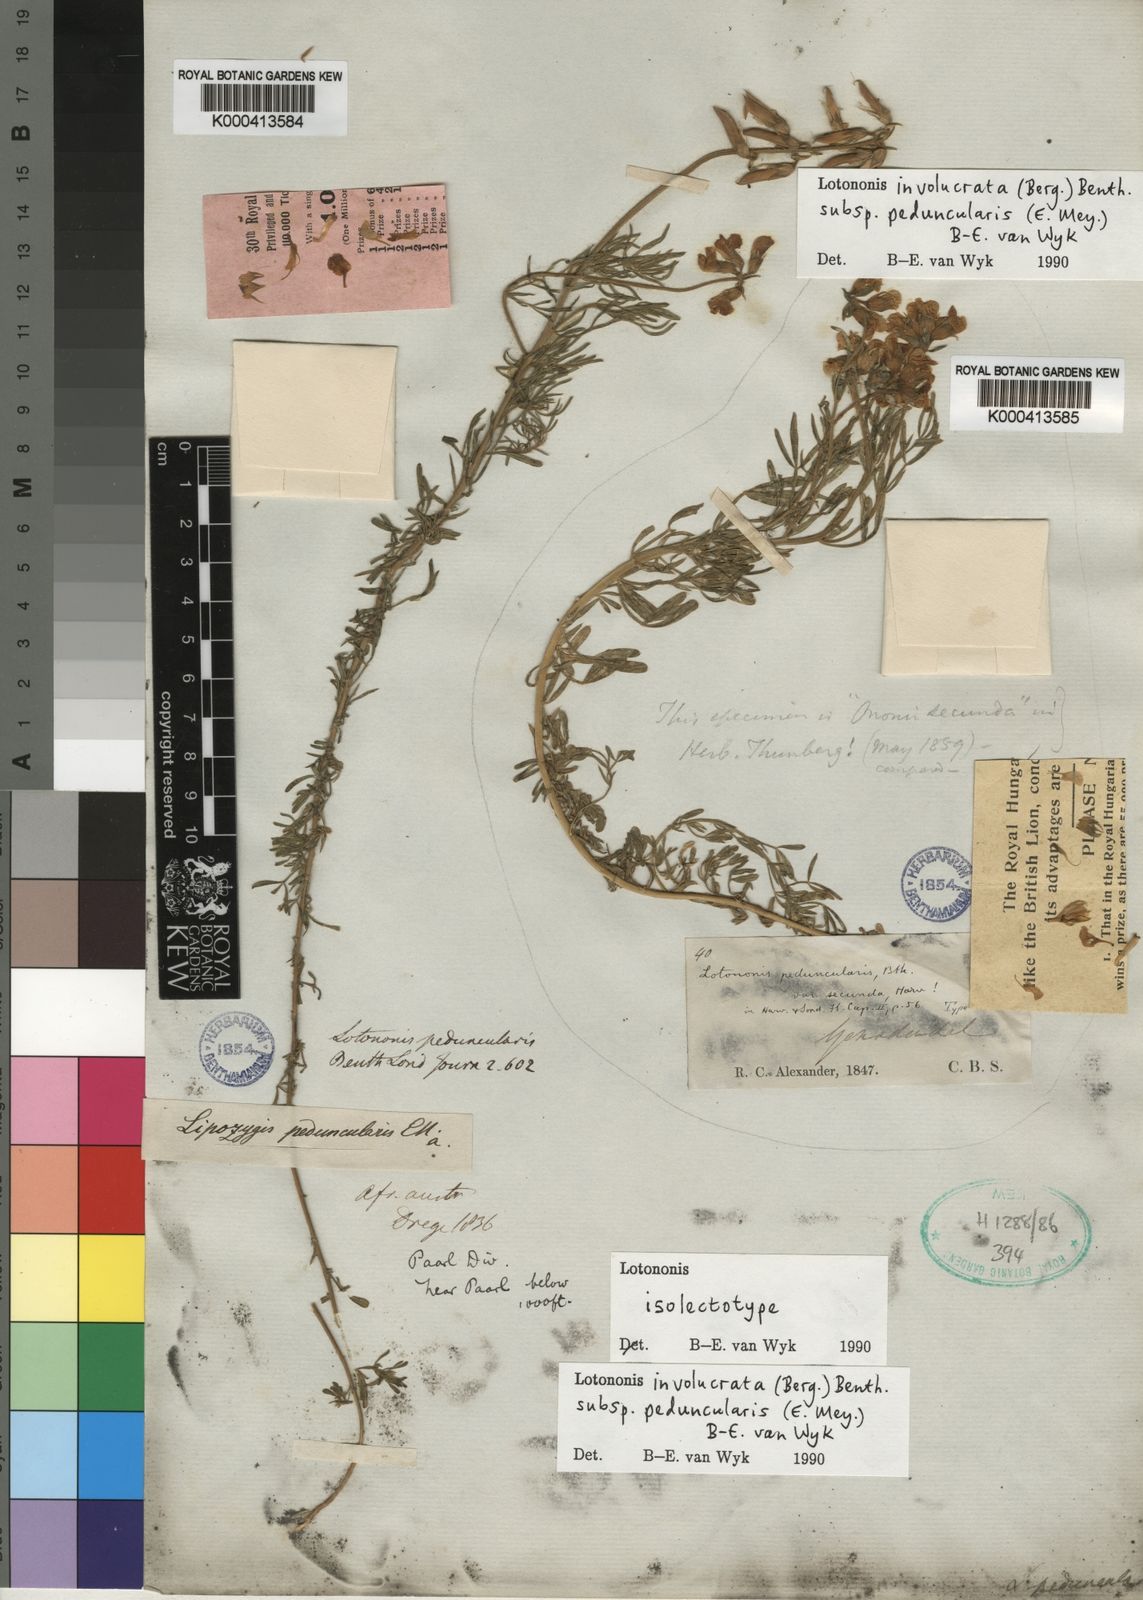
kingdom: Plantae
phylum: Tracheophyta
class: Magnoliopsida
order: Fabales
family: Fabaceae
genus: Lotononis
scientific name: Lotononis involucrata
